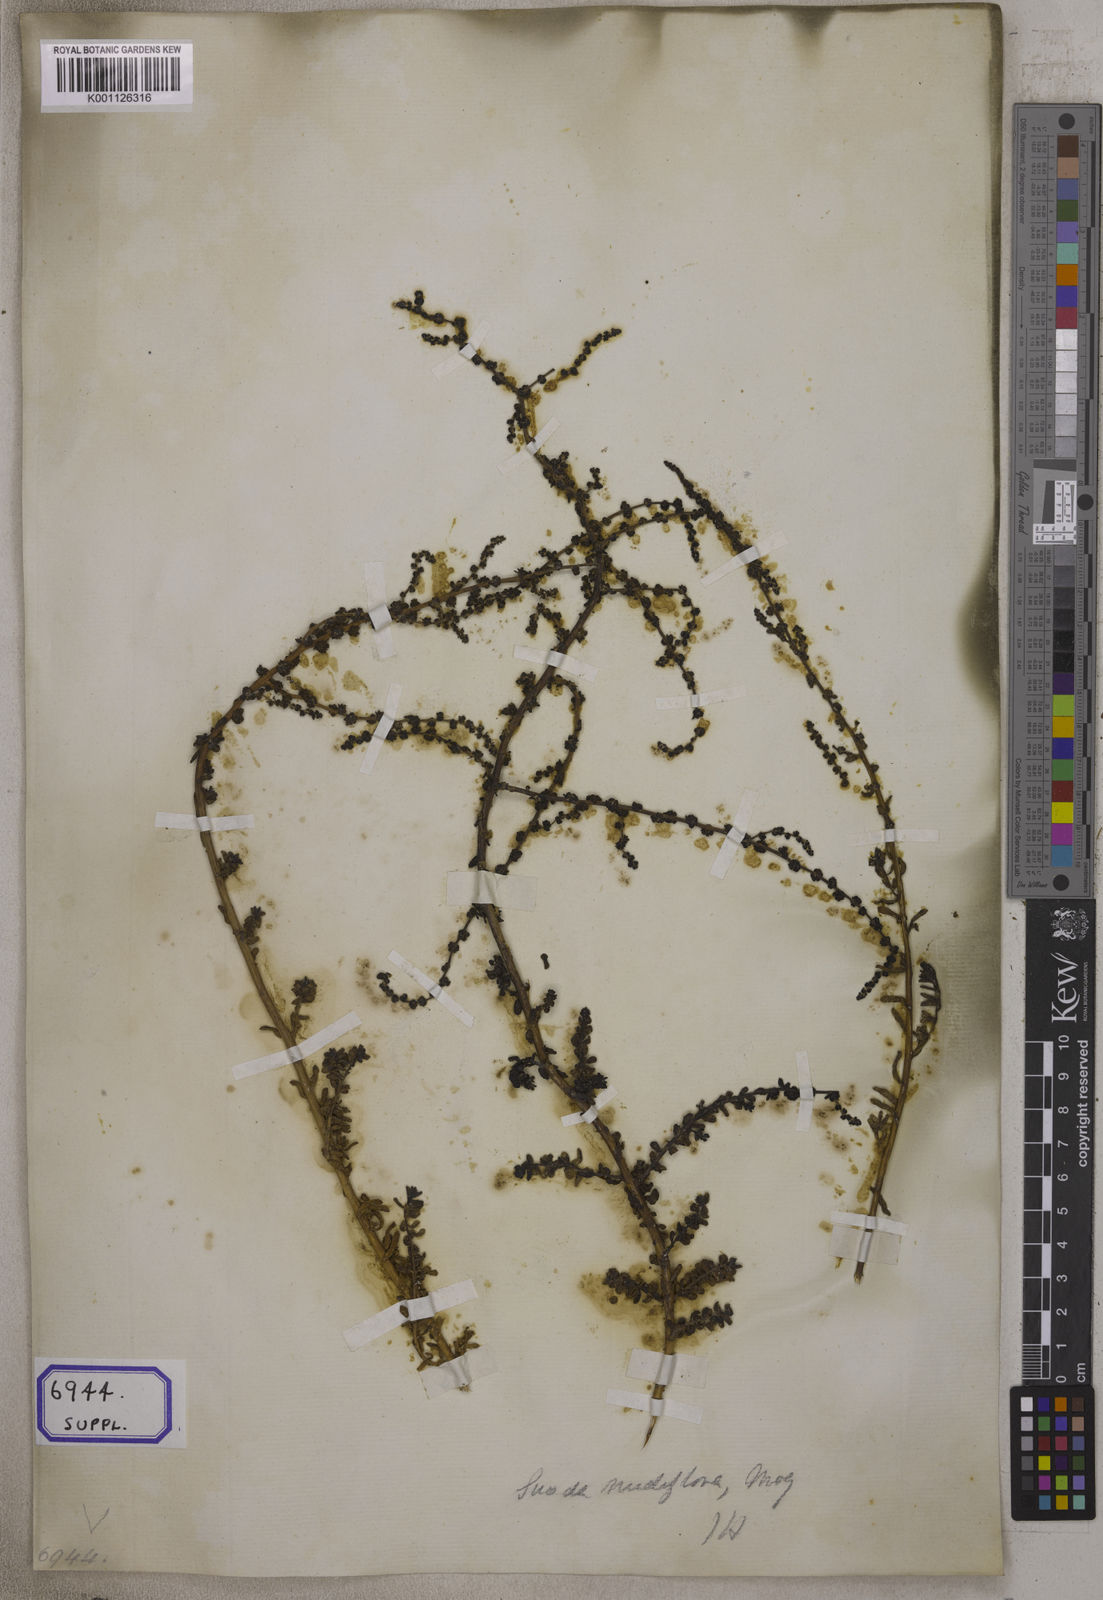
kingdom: Plantae
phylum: Tracheophyta
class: Magnoliopsida
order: Caryophyllales
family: Amaranthaceae
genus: Suaeda
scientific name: Suaeda maritima
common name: Annual sea-blite
